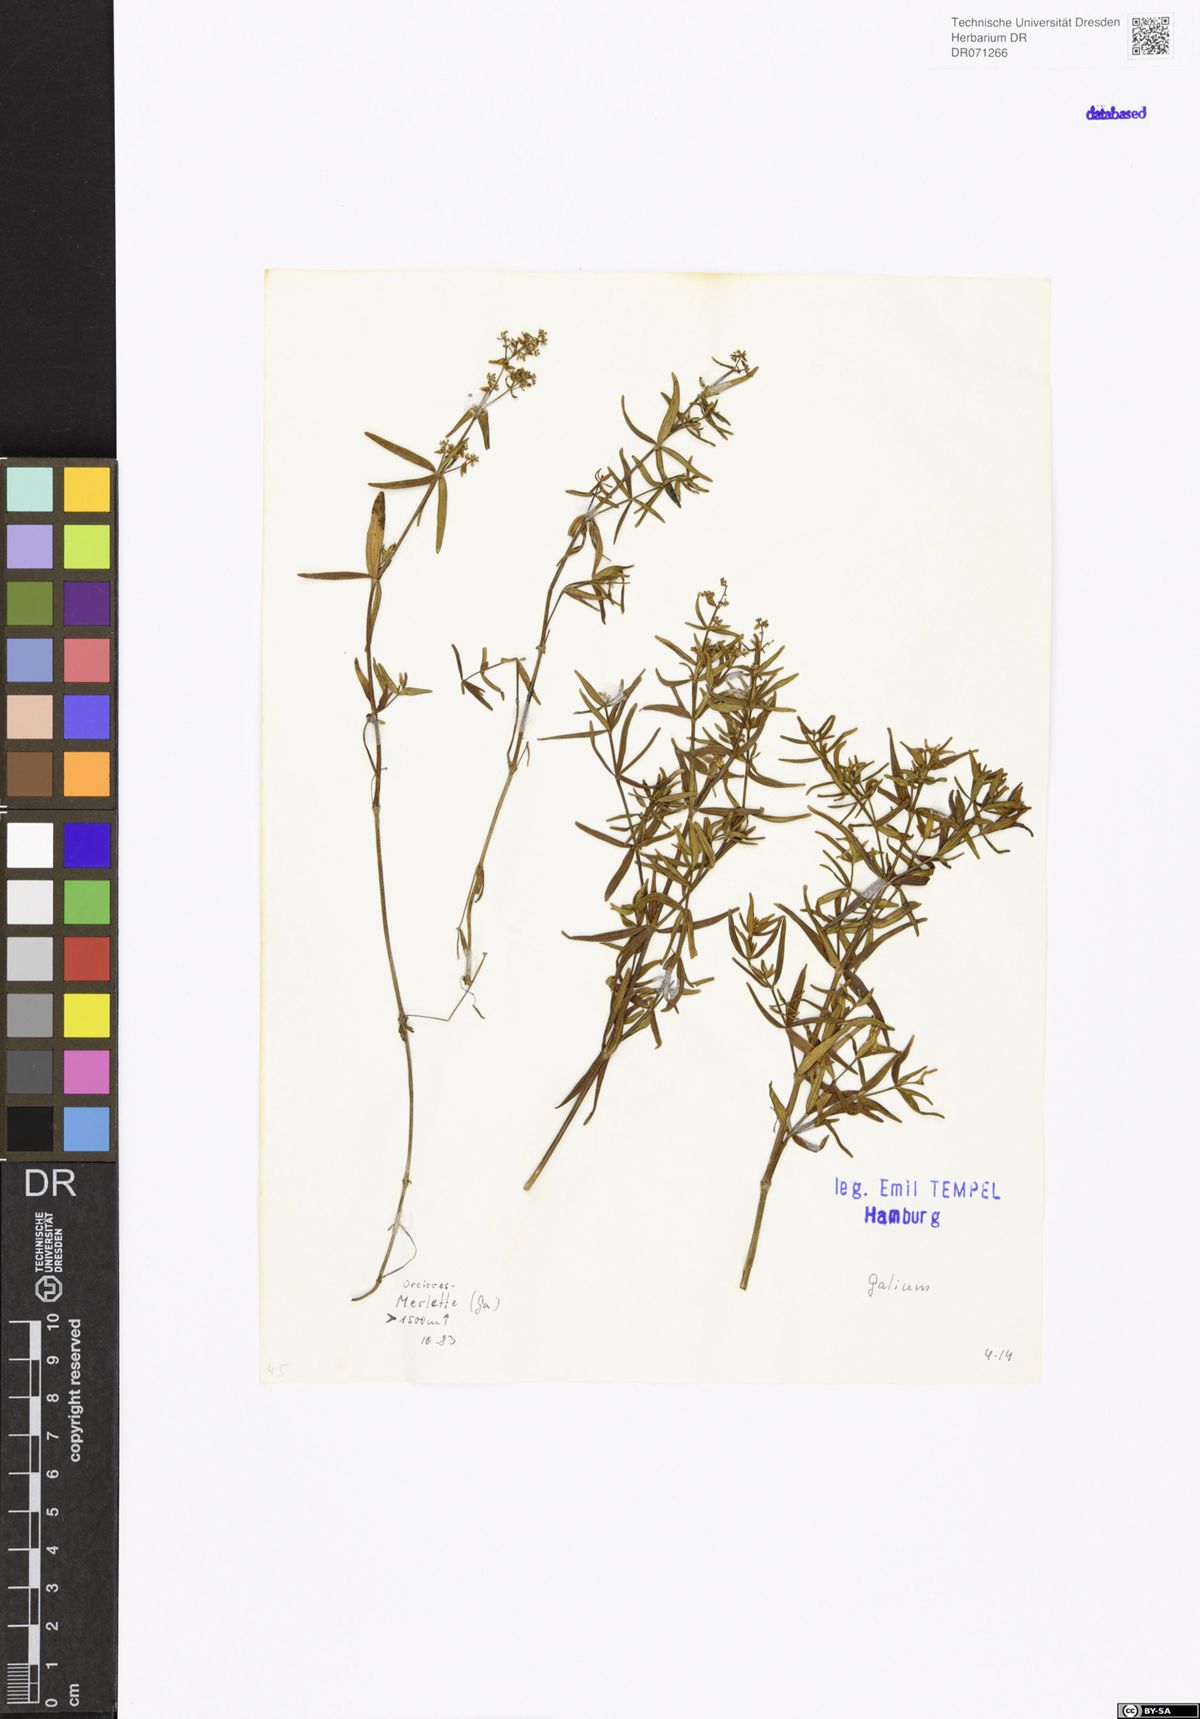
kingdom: Plantae
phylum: Tracheophyta
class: Magnoliopsida
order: Gentianales
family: Rubiaceae
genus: Galium
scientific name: Galium
